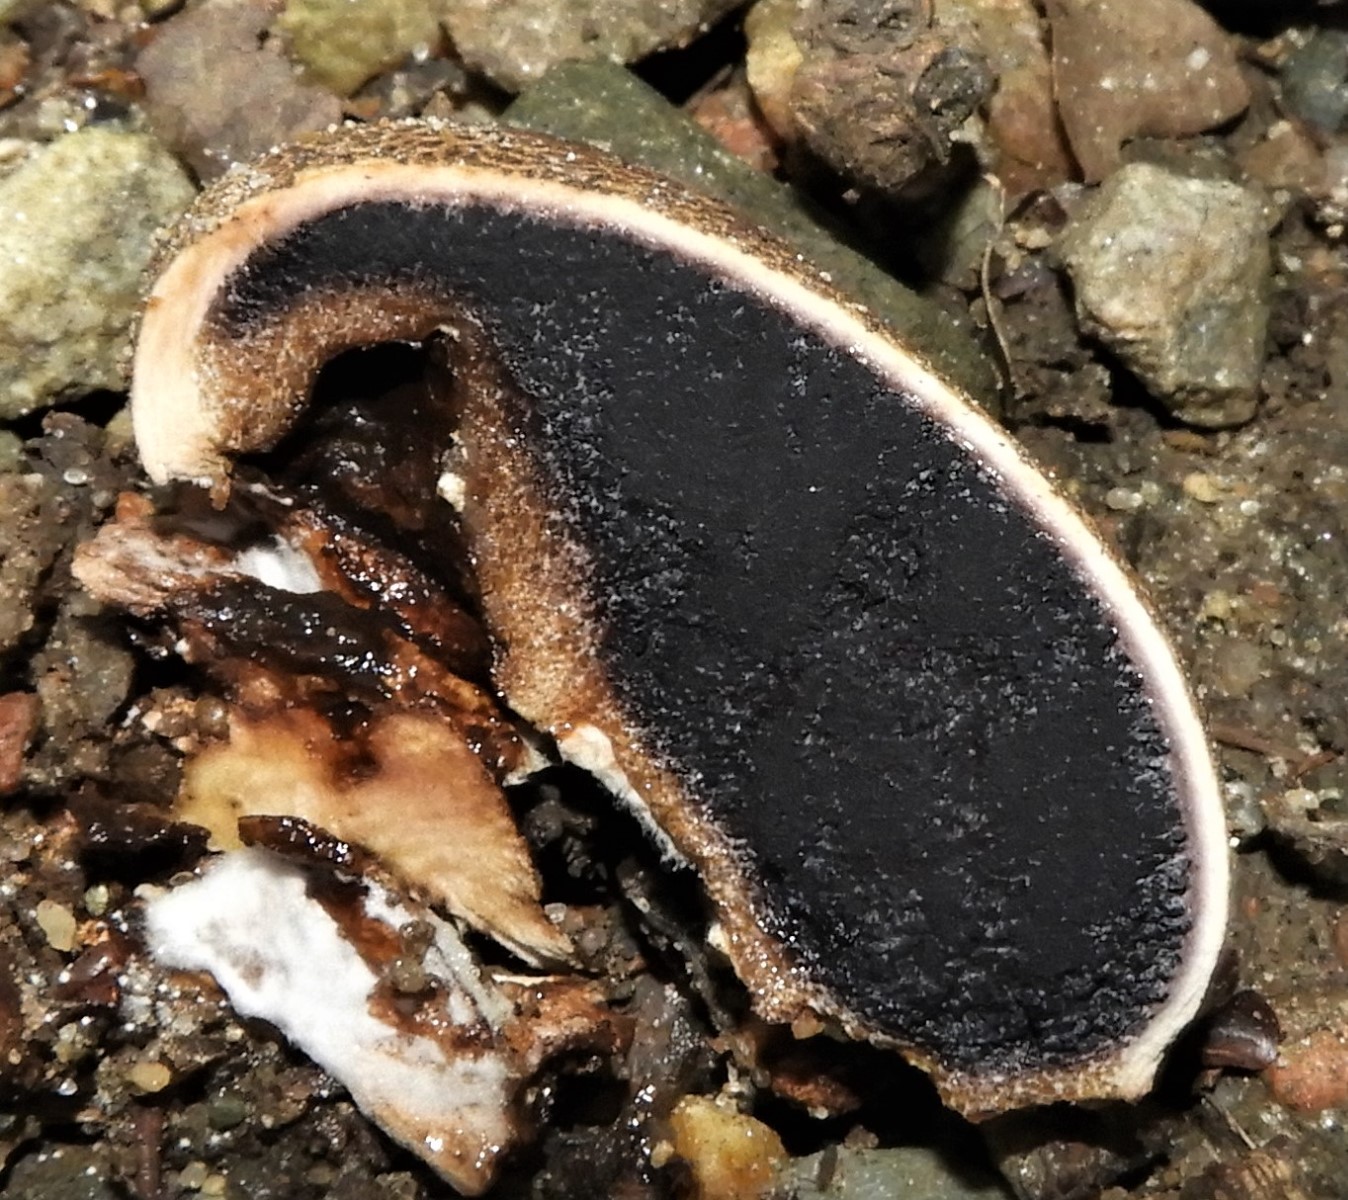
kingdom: Fungi
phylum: Basidiomycota
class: Agaricomycetes
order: Boletales
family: Sclerodermataceae
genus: Scleroderma
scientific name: Scleroderma citrinum
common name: almindelig bruskbold
